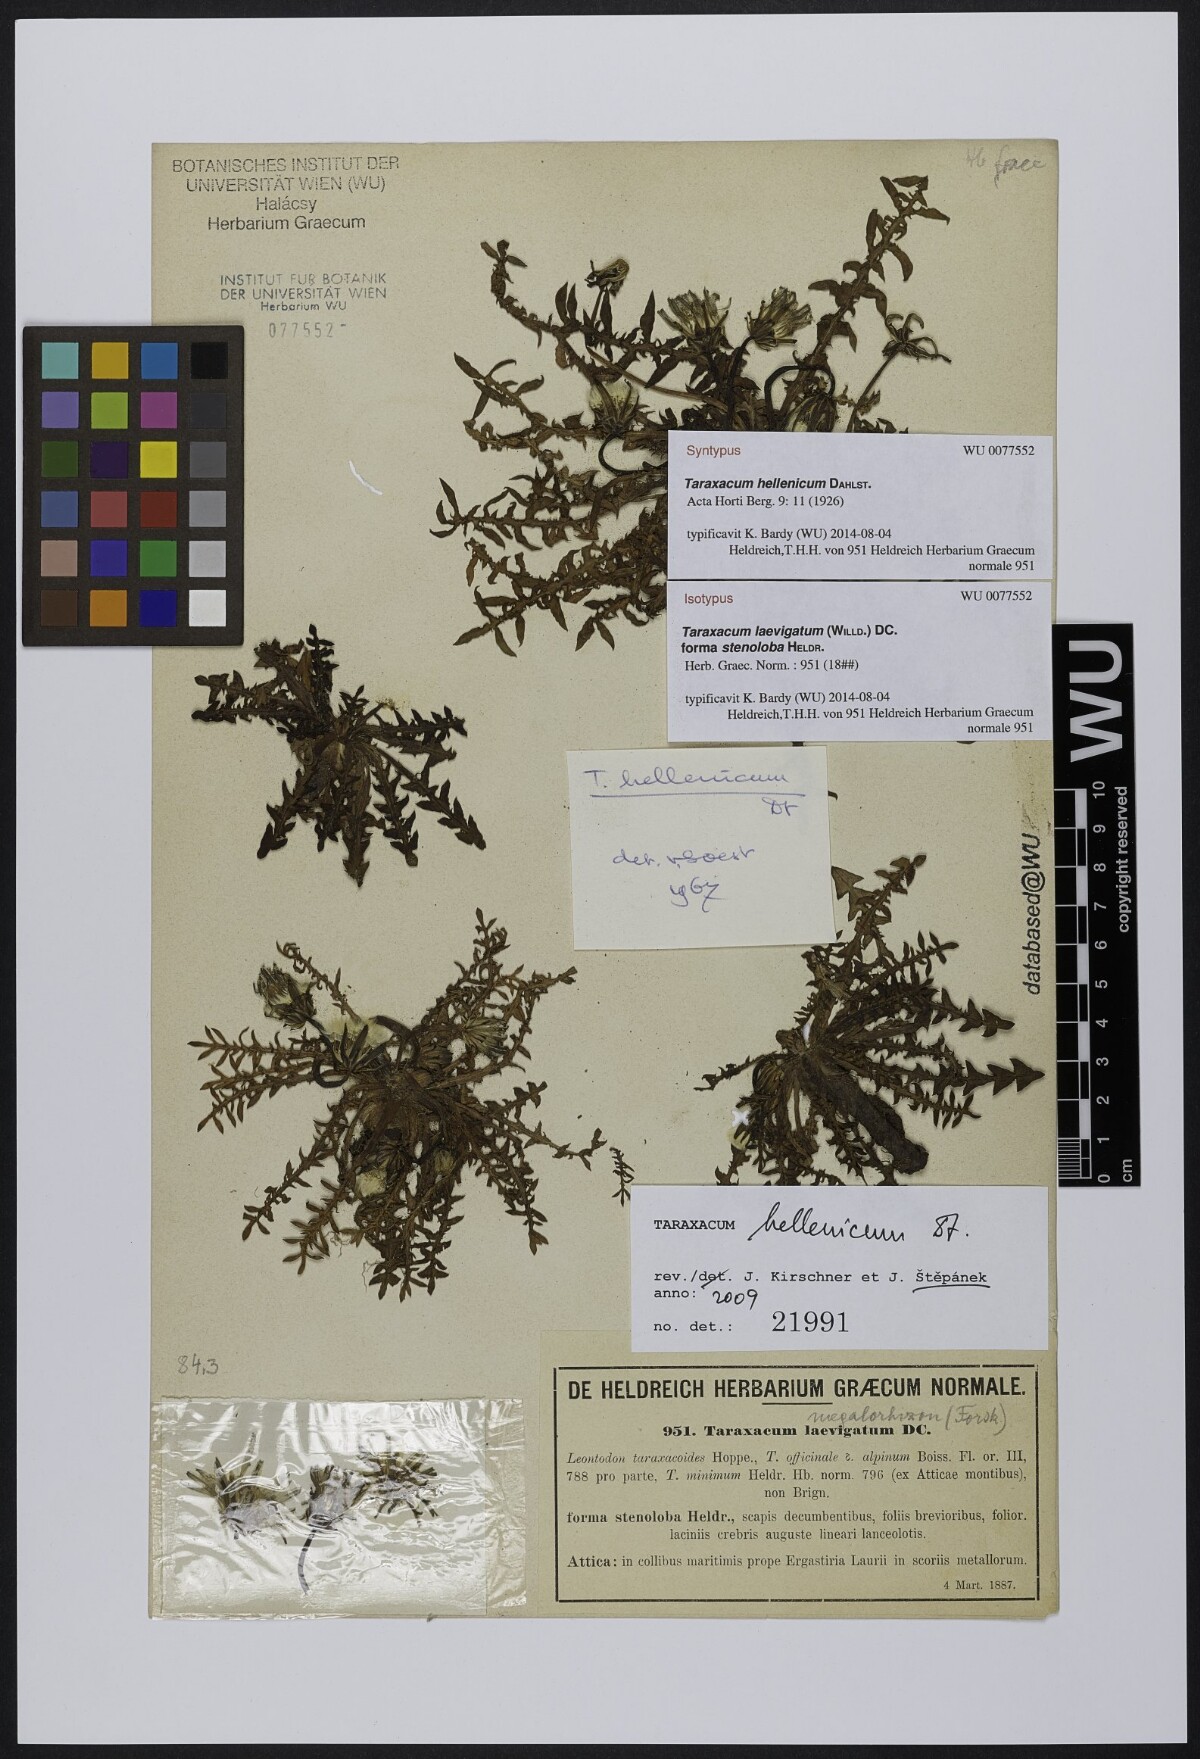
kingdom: Plantae
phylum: Tracheophyta
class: Magnoliopsida
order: Asterales
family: Asteraceae
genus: Taraxacum
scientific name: Taraxacum hellenicum
